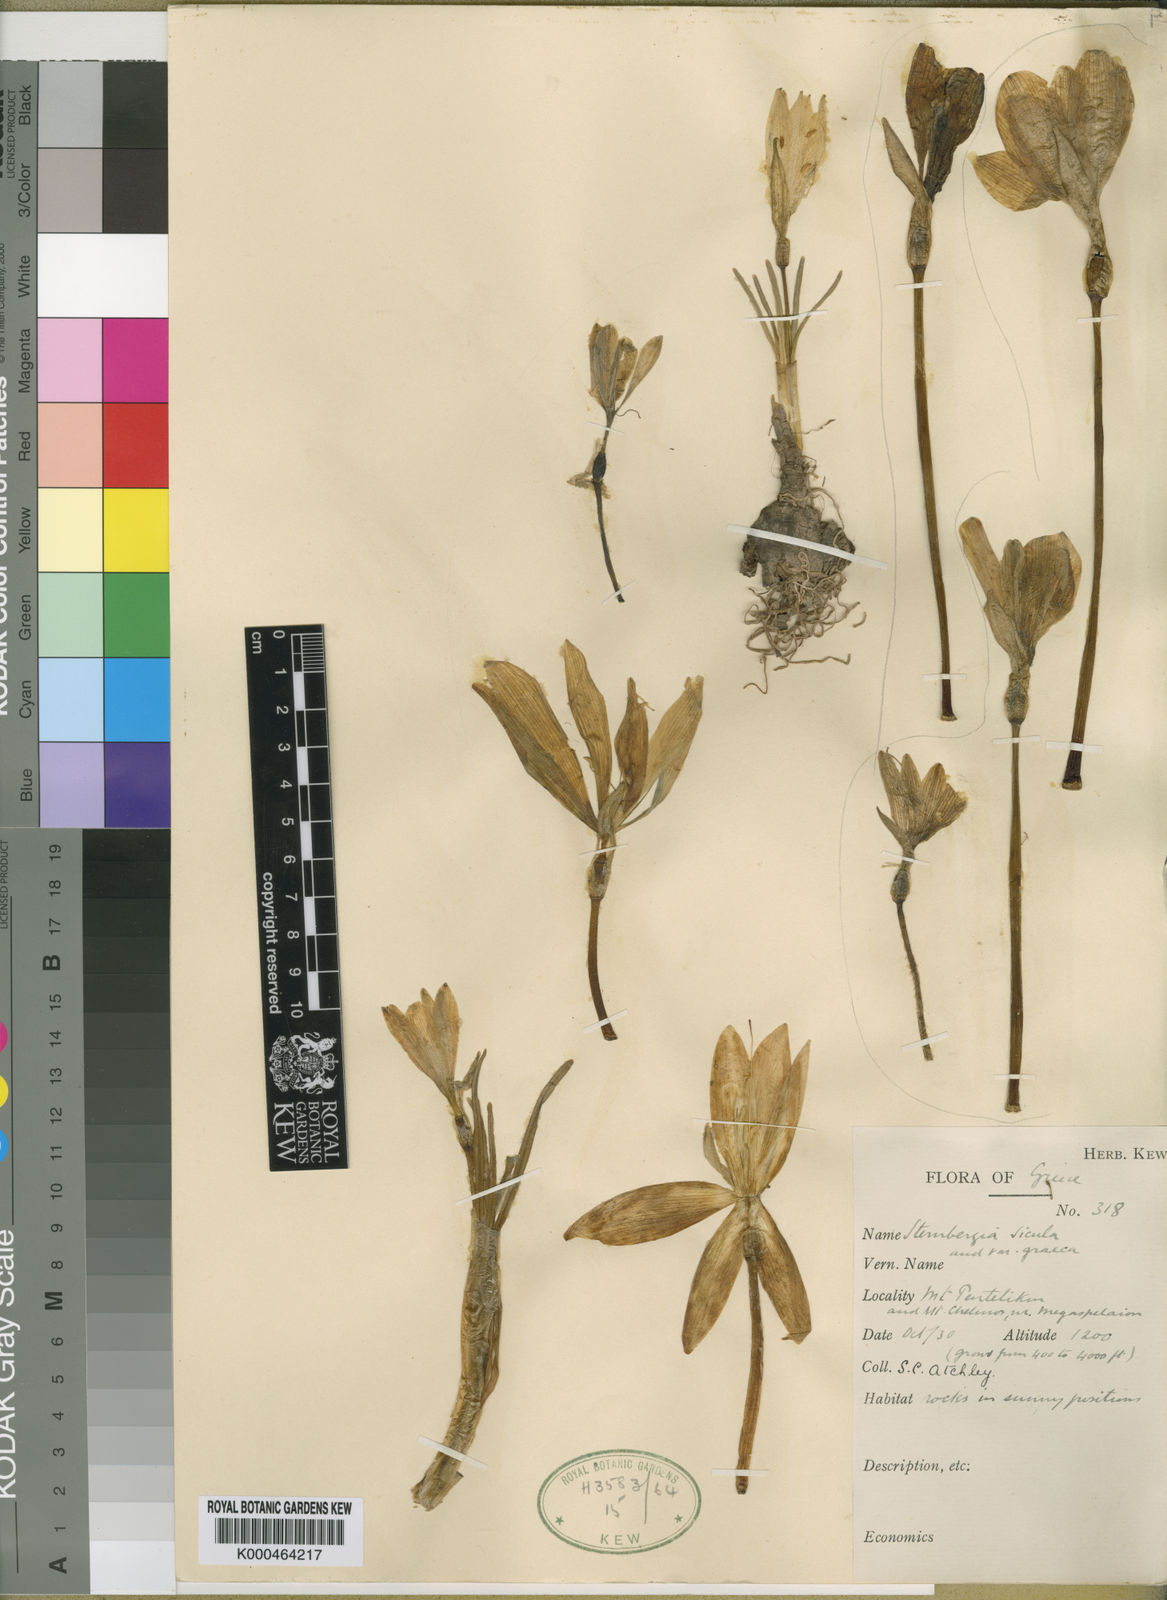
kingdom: Plantae
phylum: Tracheophyta
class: Liliopsida
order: Asparagales
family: Amaryllidaceae
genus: Sternbergia
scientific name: Sternbergia
